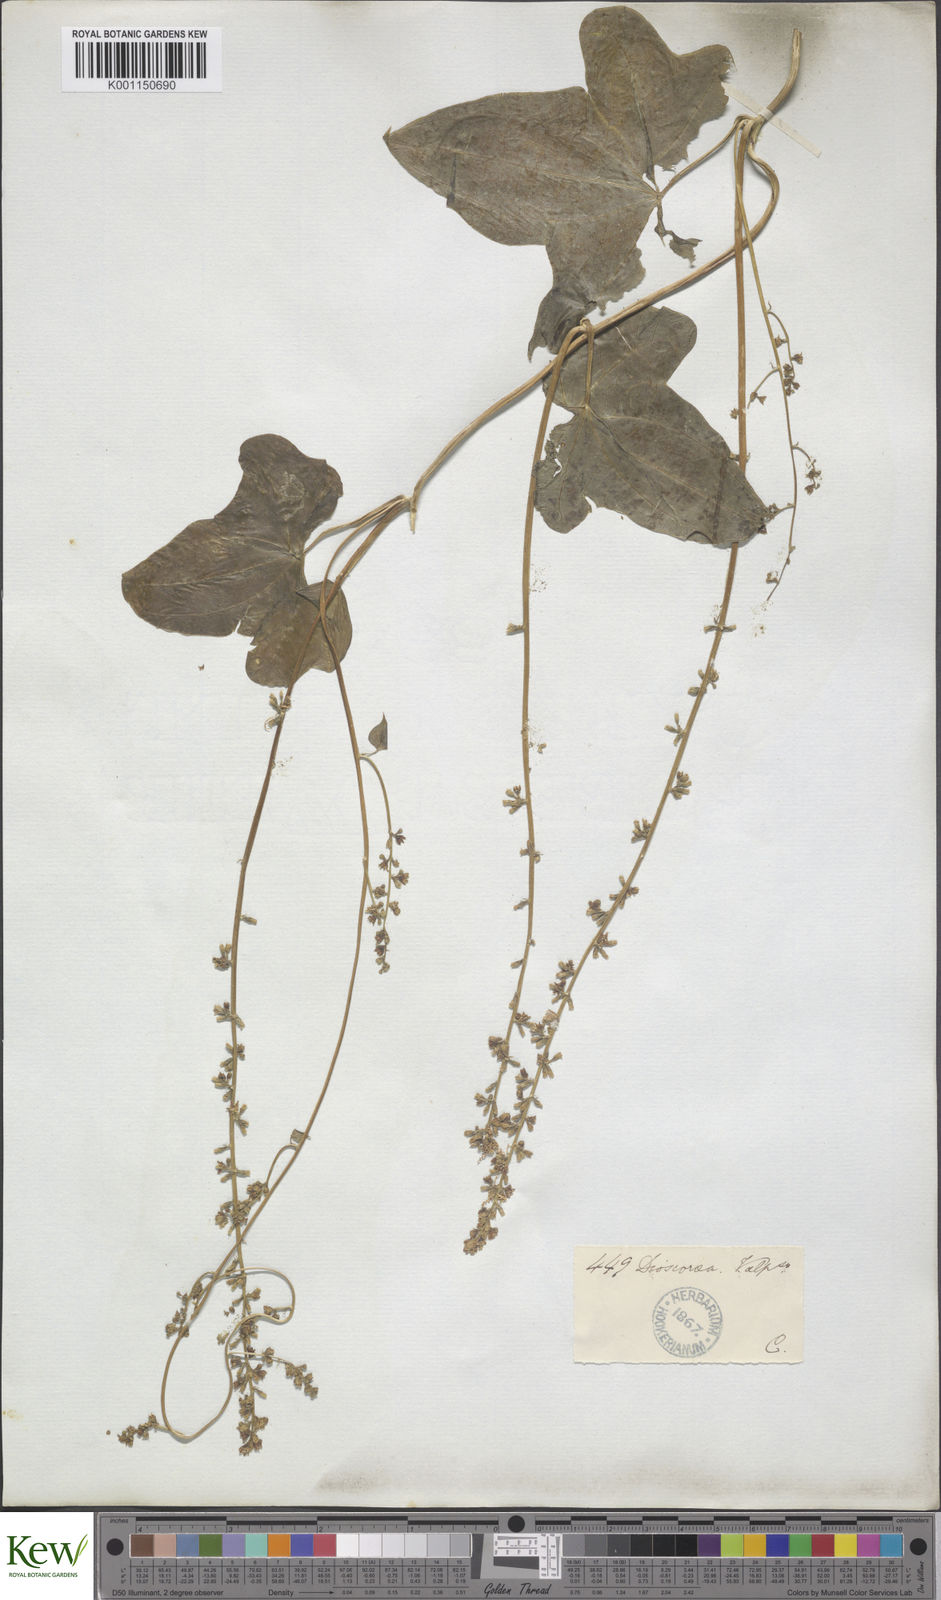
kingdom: Plantae
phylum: Tracheophyta
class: Liliopsida
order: Dioscoreales
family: Dioscoreaceae
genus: Dioscorea
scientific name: Dioscorea bryoniifolia
